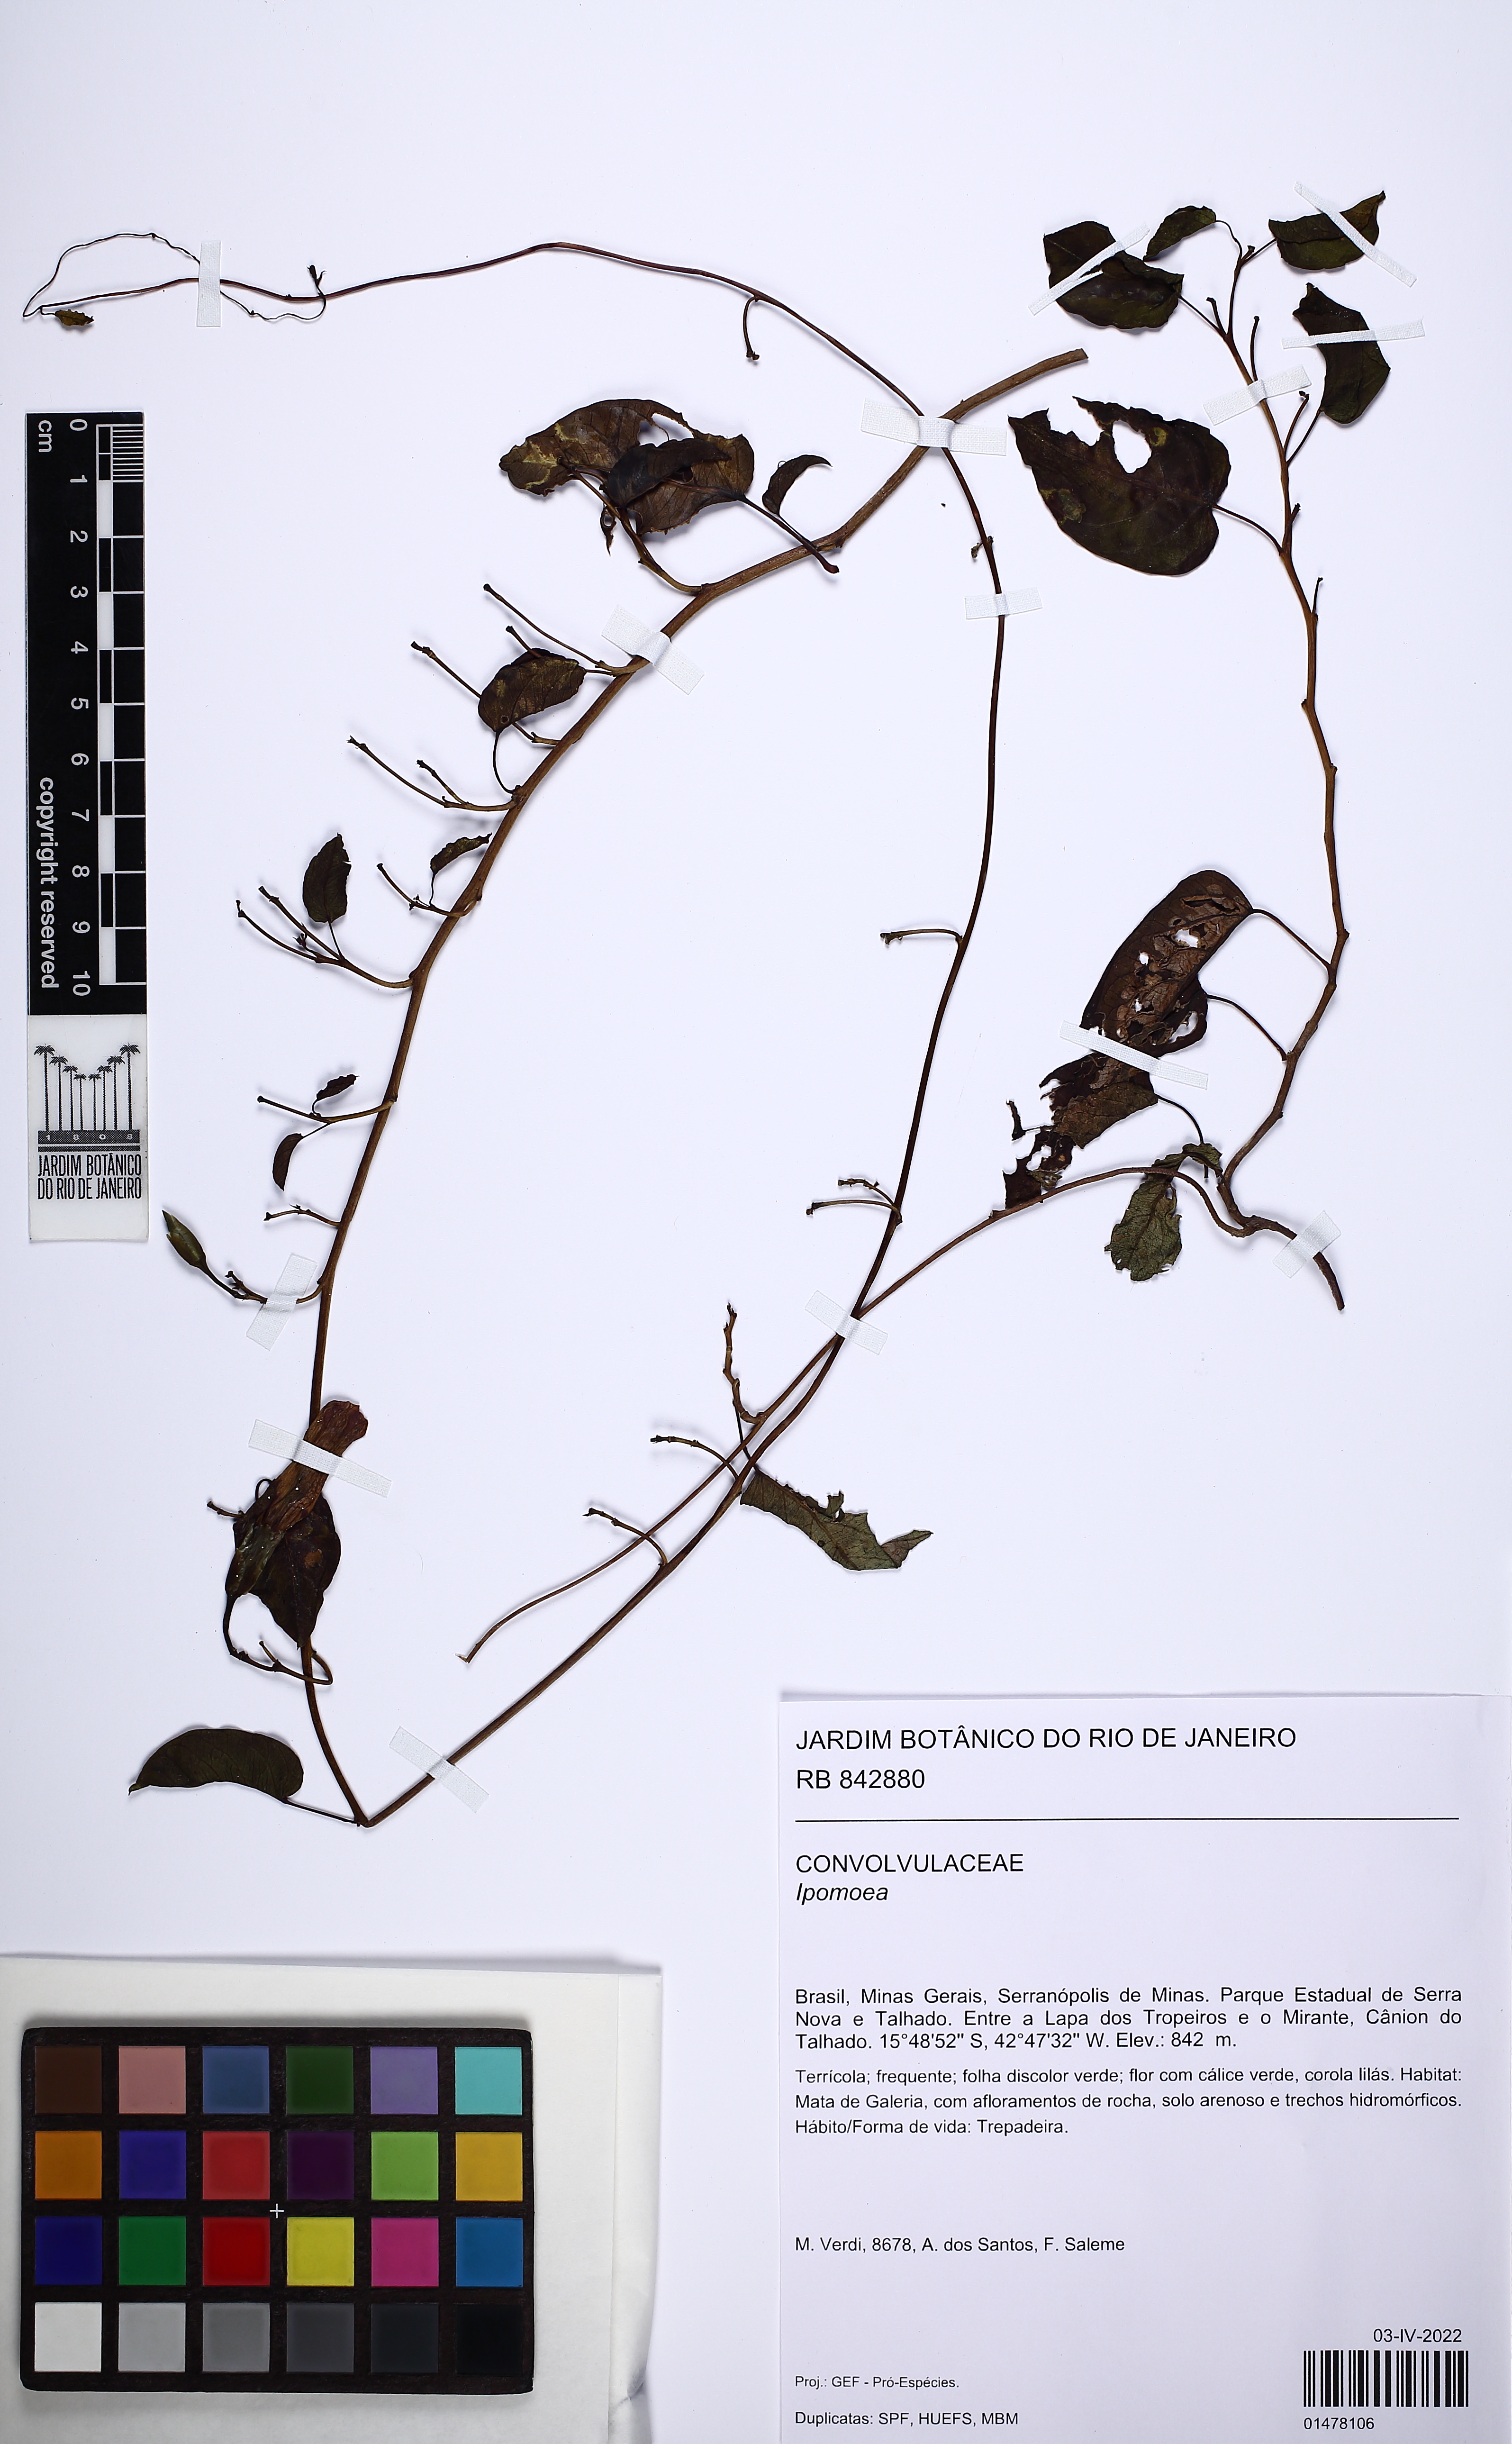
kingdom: Plantae
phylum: Tracheophyta
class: Magnoliopsida
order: Solanales
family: Convolvulaceae
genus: Ipomoea
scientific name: Ipomoea
